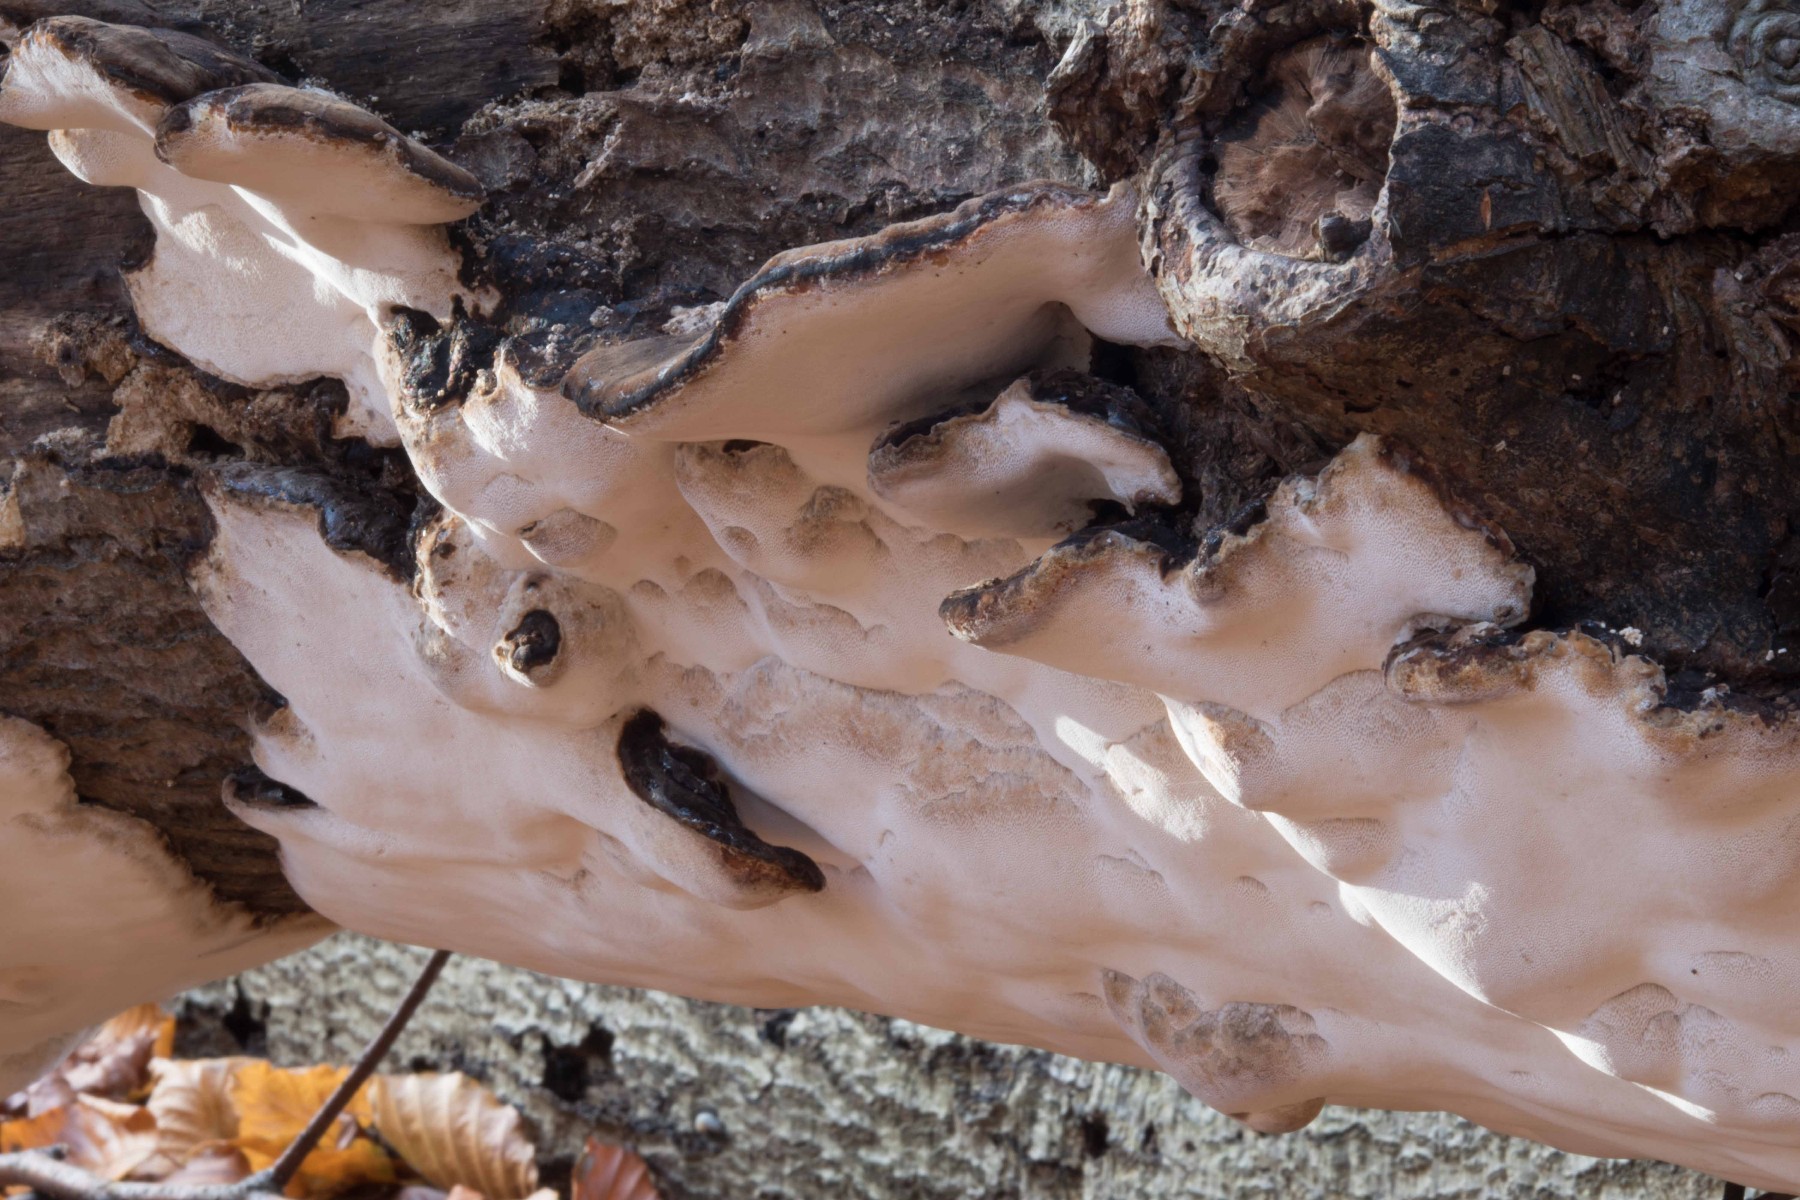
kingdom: Fungi
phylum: Basidiomycota
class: Agaricomycetes
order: Polyporales
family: Ischnodermataceae
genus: Ischnoderma
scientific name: Ischnoderma resinosum
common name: løv-tjæreporesvamp
